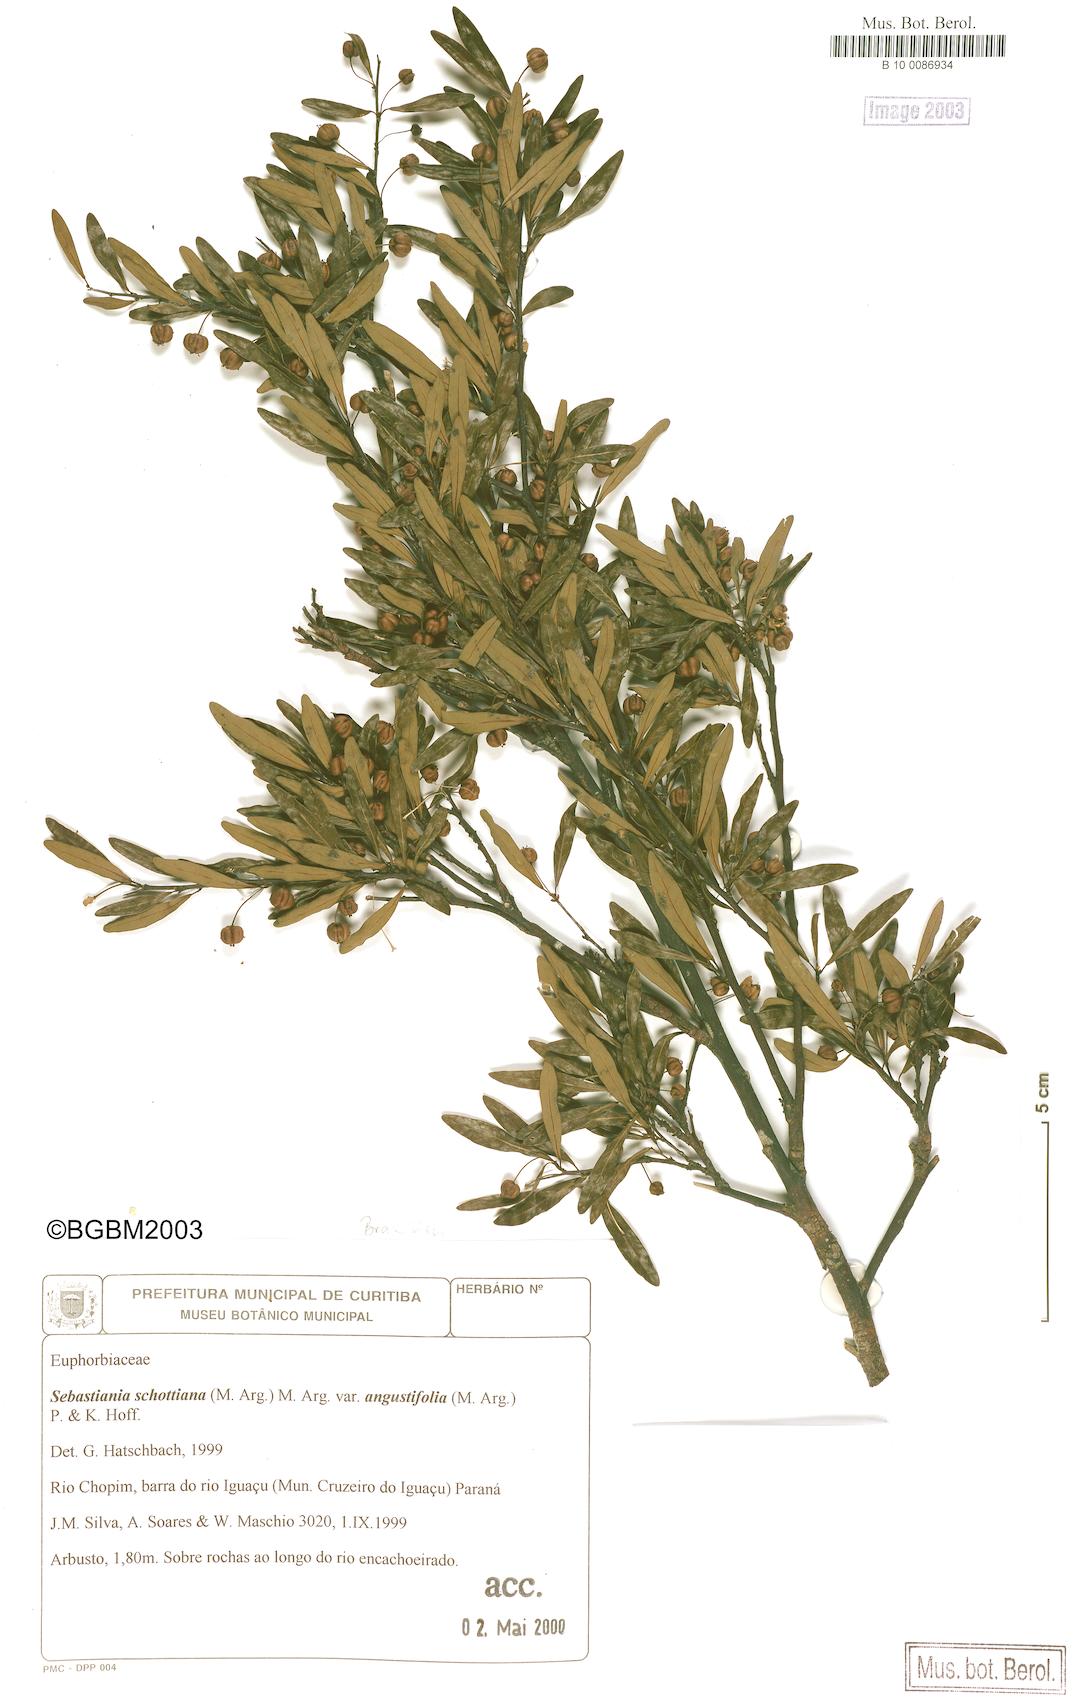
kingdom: Plantae
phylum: Tracheophyta
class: Magnoliopsida
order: Malpighiales
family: Euphorbiaceae
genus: Sebastiania
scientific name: Sebastiania schottiana
